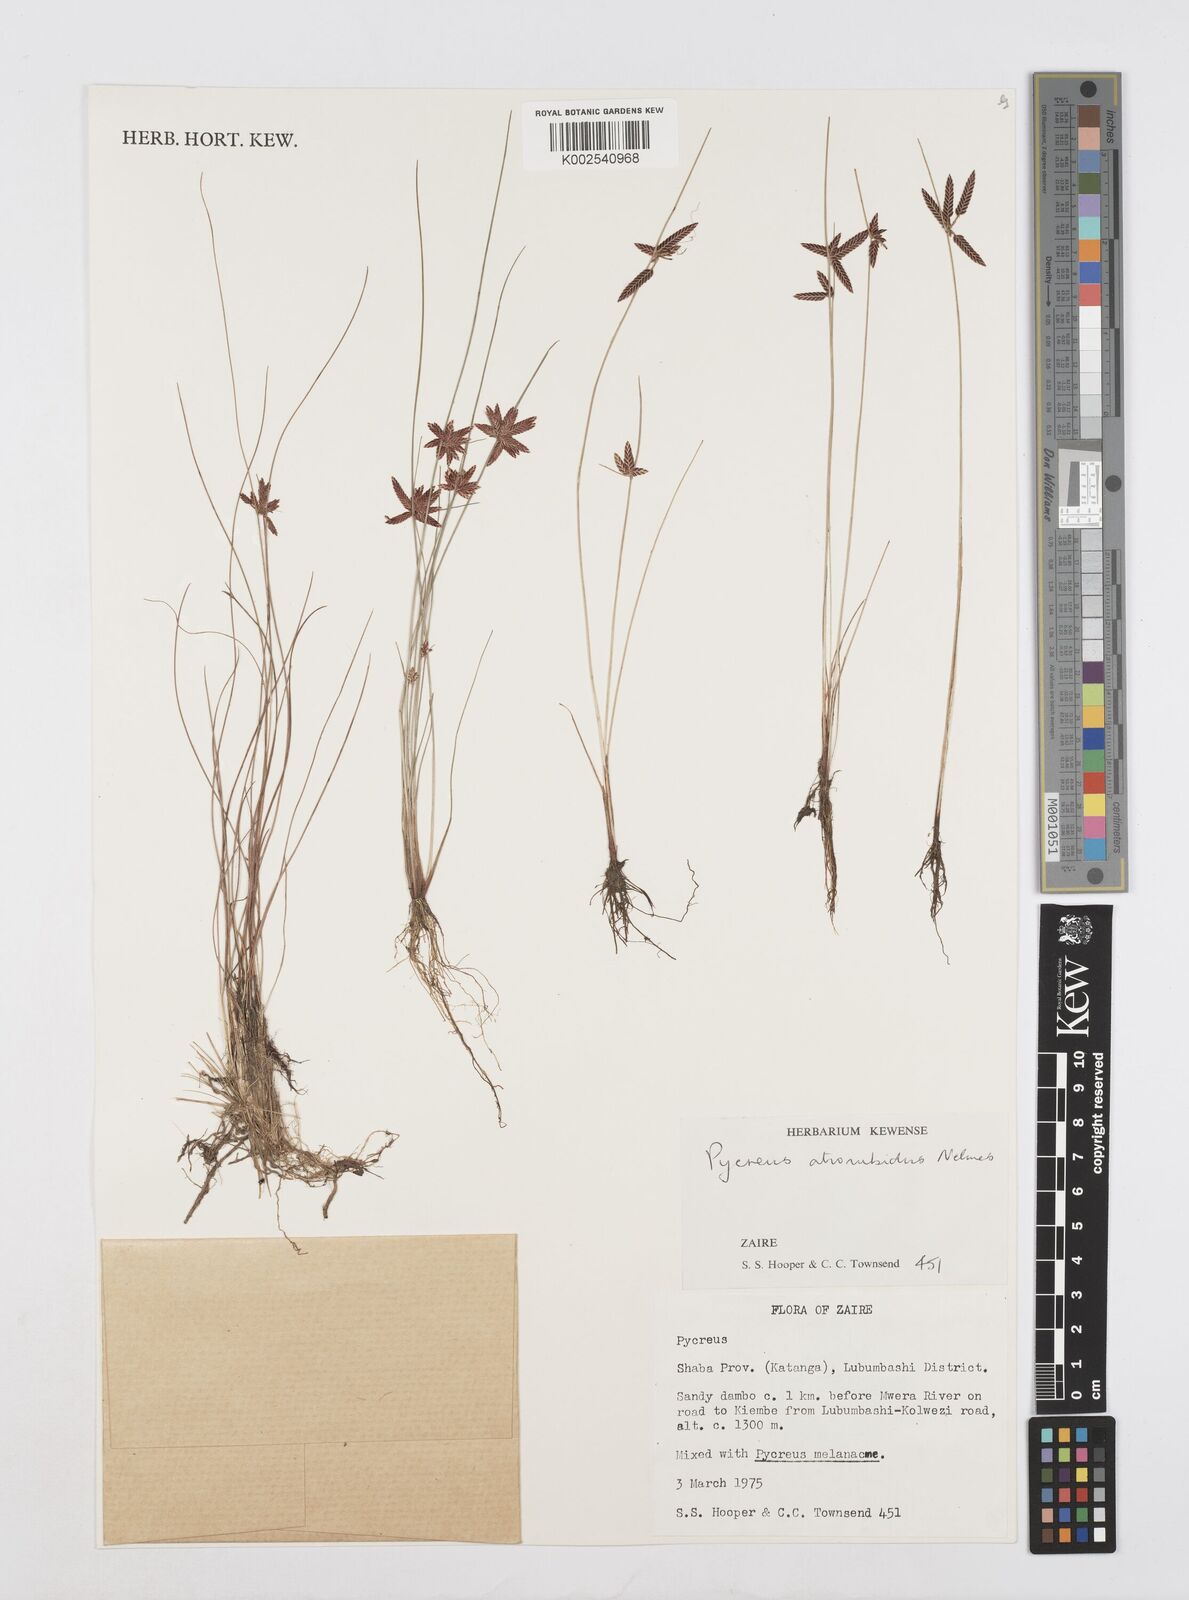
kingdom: Plantae
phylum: Tracheophyta
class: Liliopsida
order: Poales
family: Cyperaceae
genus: Cyperus
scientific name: Cyperus atrorubidus
